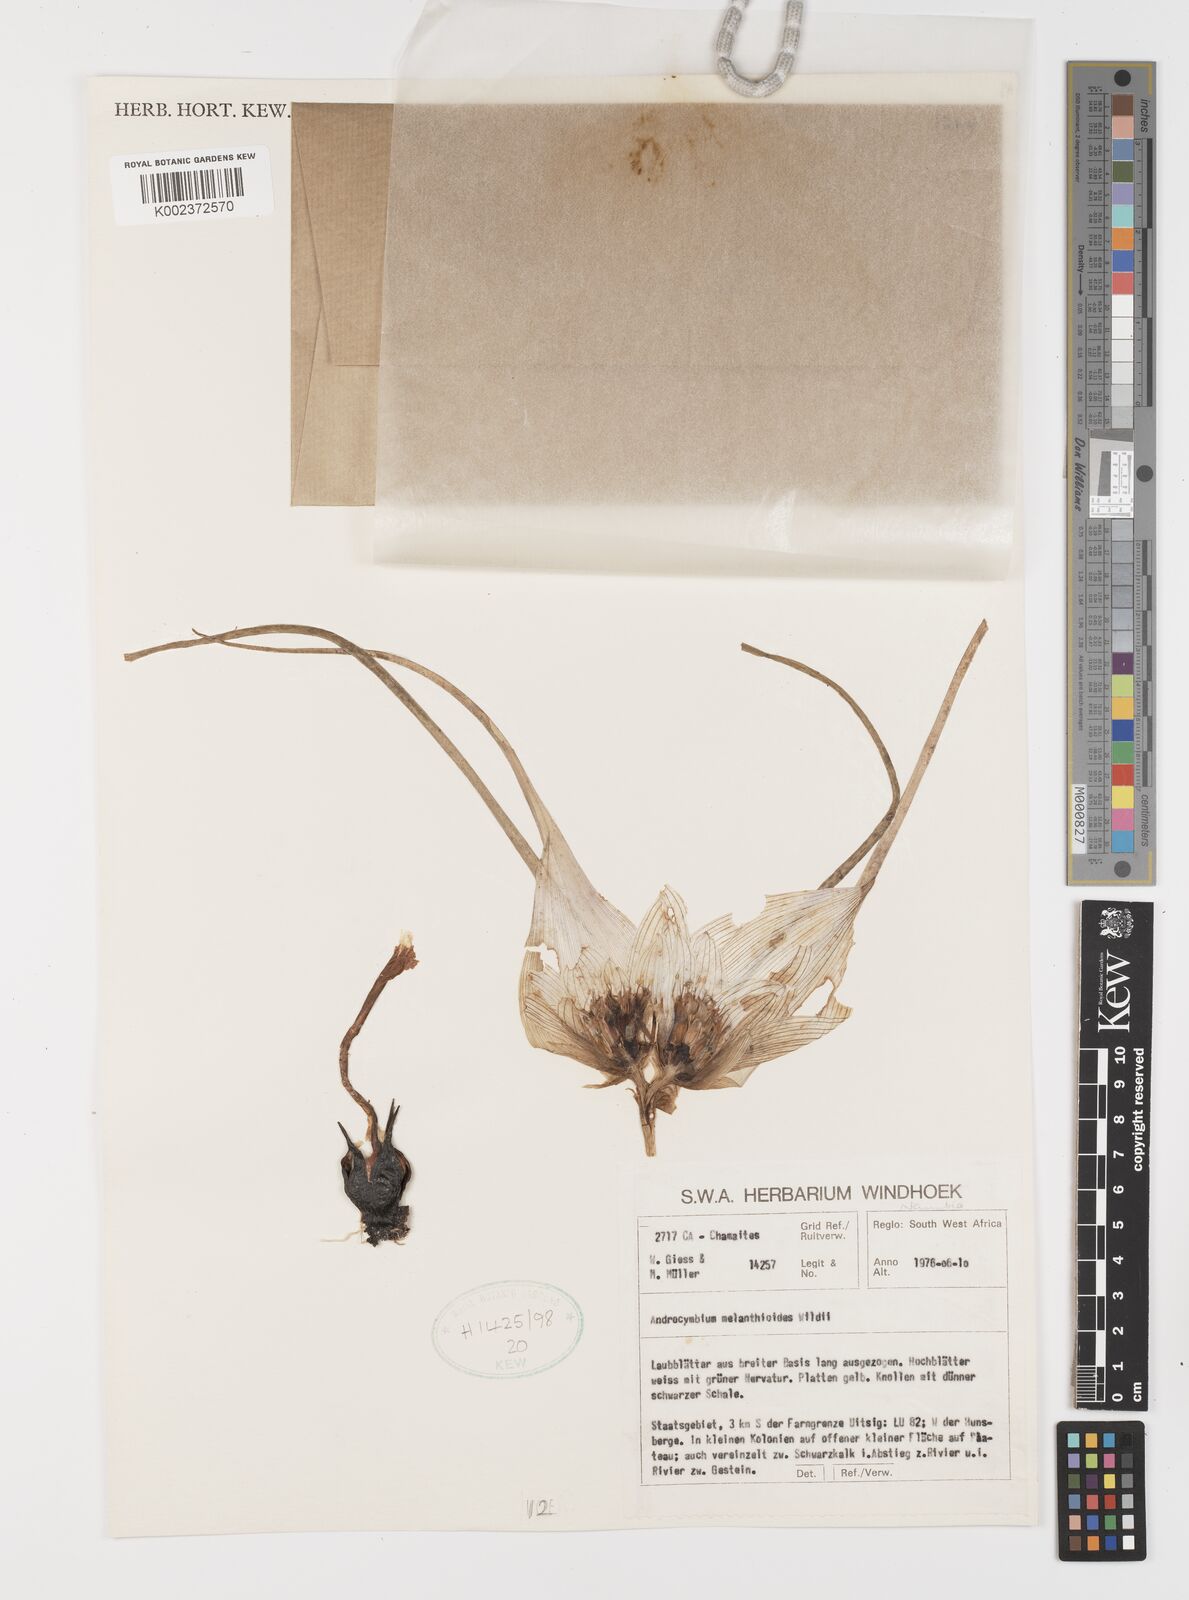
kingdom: Plantae
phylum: Tracheophyta
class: Liliopsida
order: Liliales
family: Colchicaceae
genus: Colchicum
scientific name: Colchicum melanthioides
